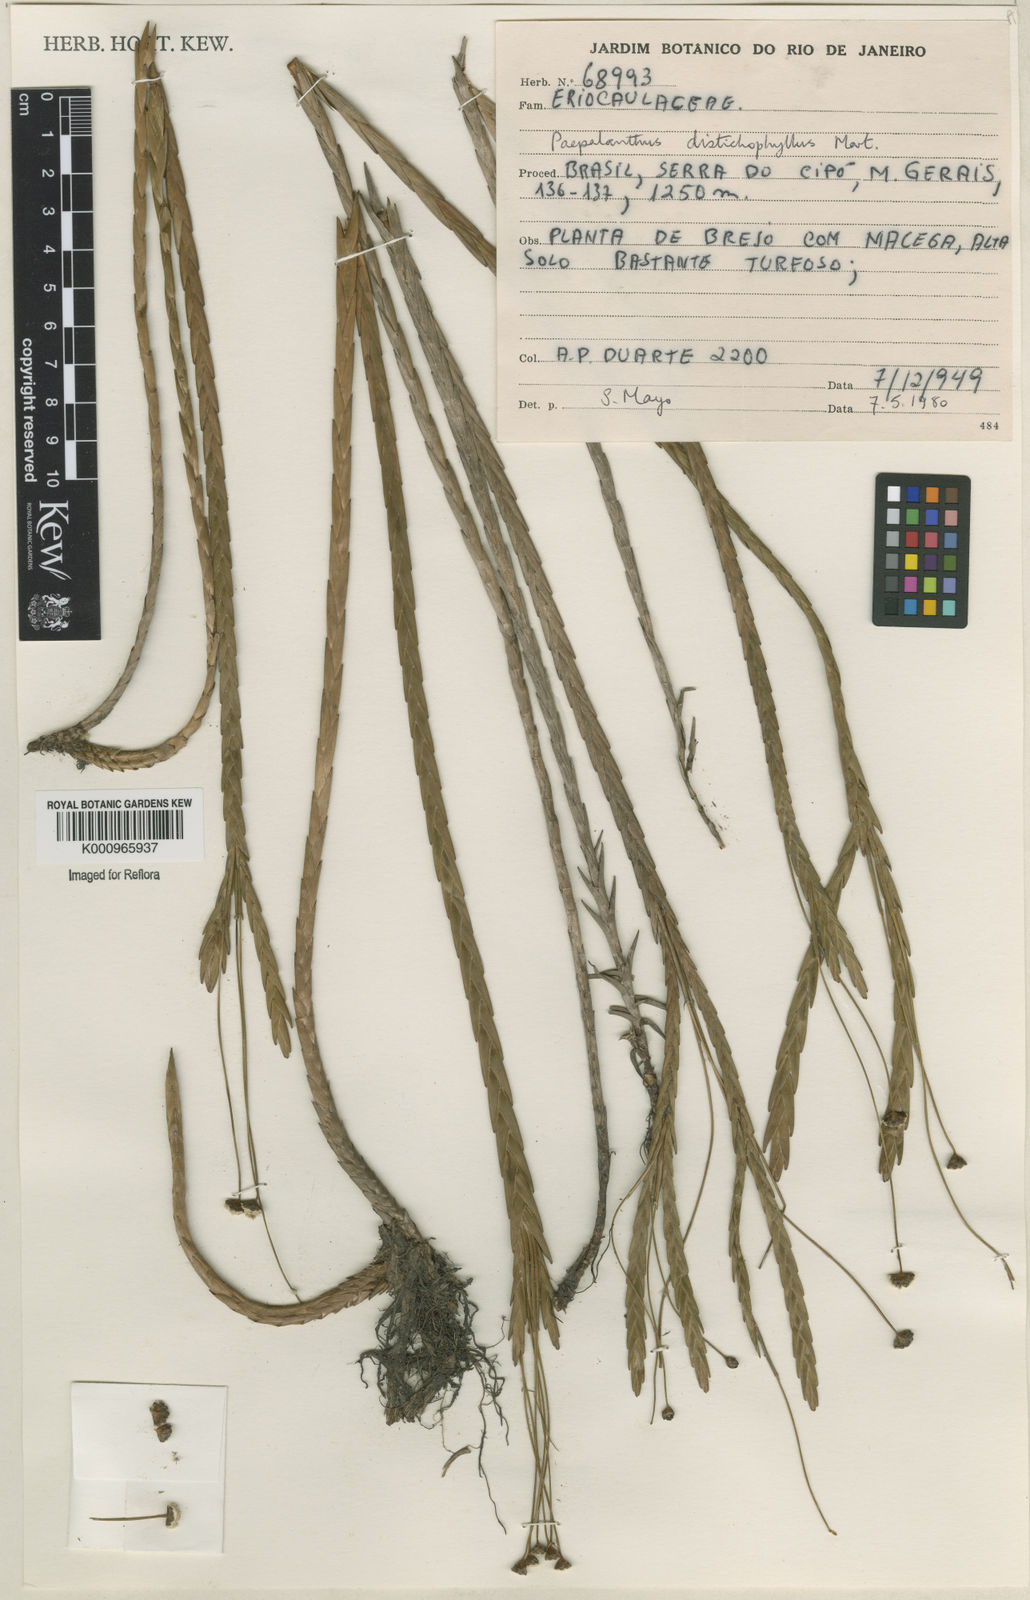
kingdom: Plantae
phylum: Tracheophyta
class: Liliopsida
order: Poales
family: Eriocaulaceae
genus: Paepalanthus
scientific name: Paepalanthus distichophyllus
